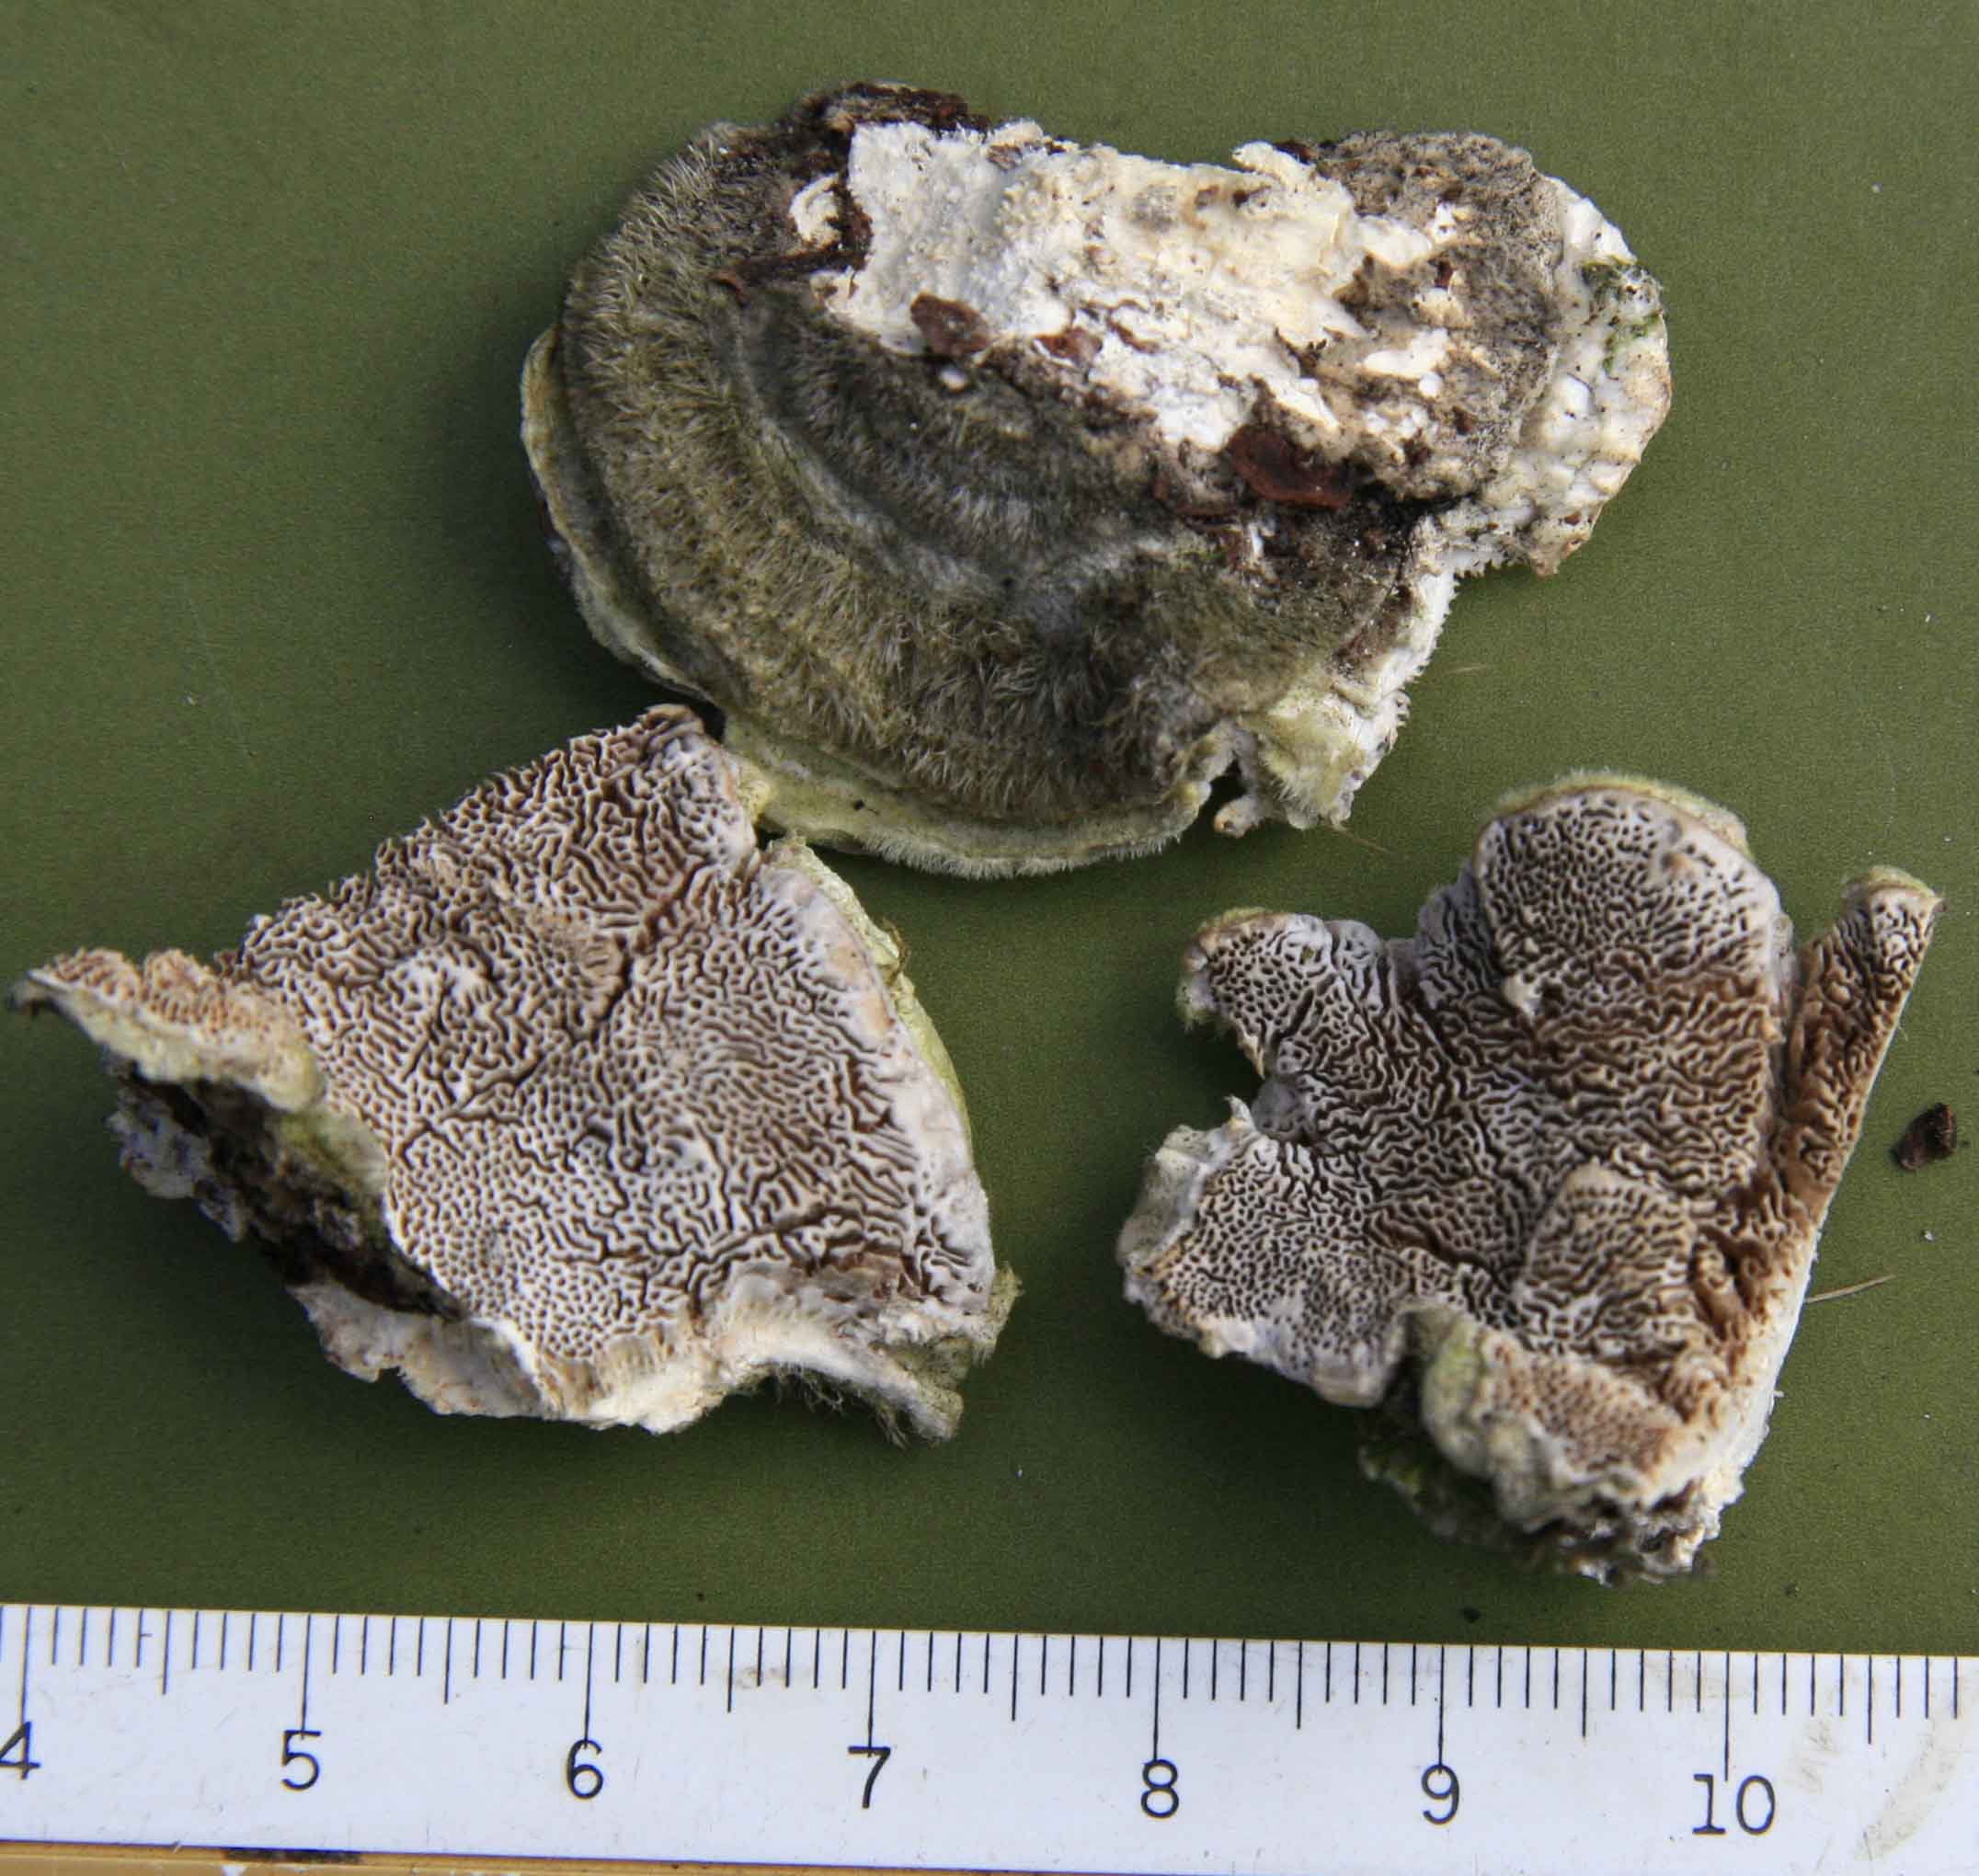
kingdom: Fungi
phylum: Basidiomycota
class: Agaricomycetes
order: Polyporales
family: Cerrenaceae
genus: Cerrena
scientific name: Cerrena unicolor
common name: ensfarvet læderporesvamp
